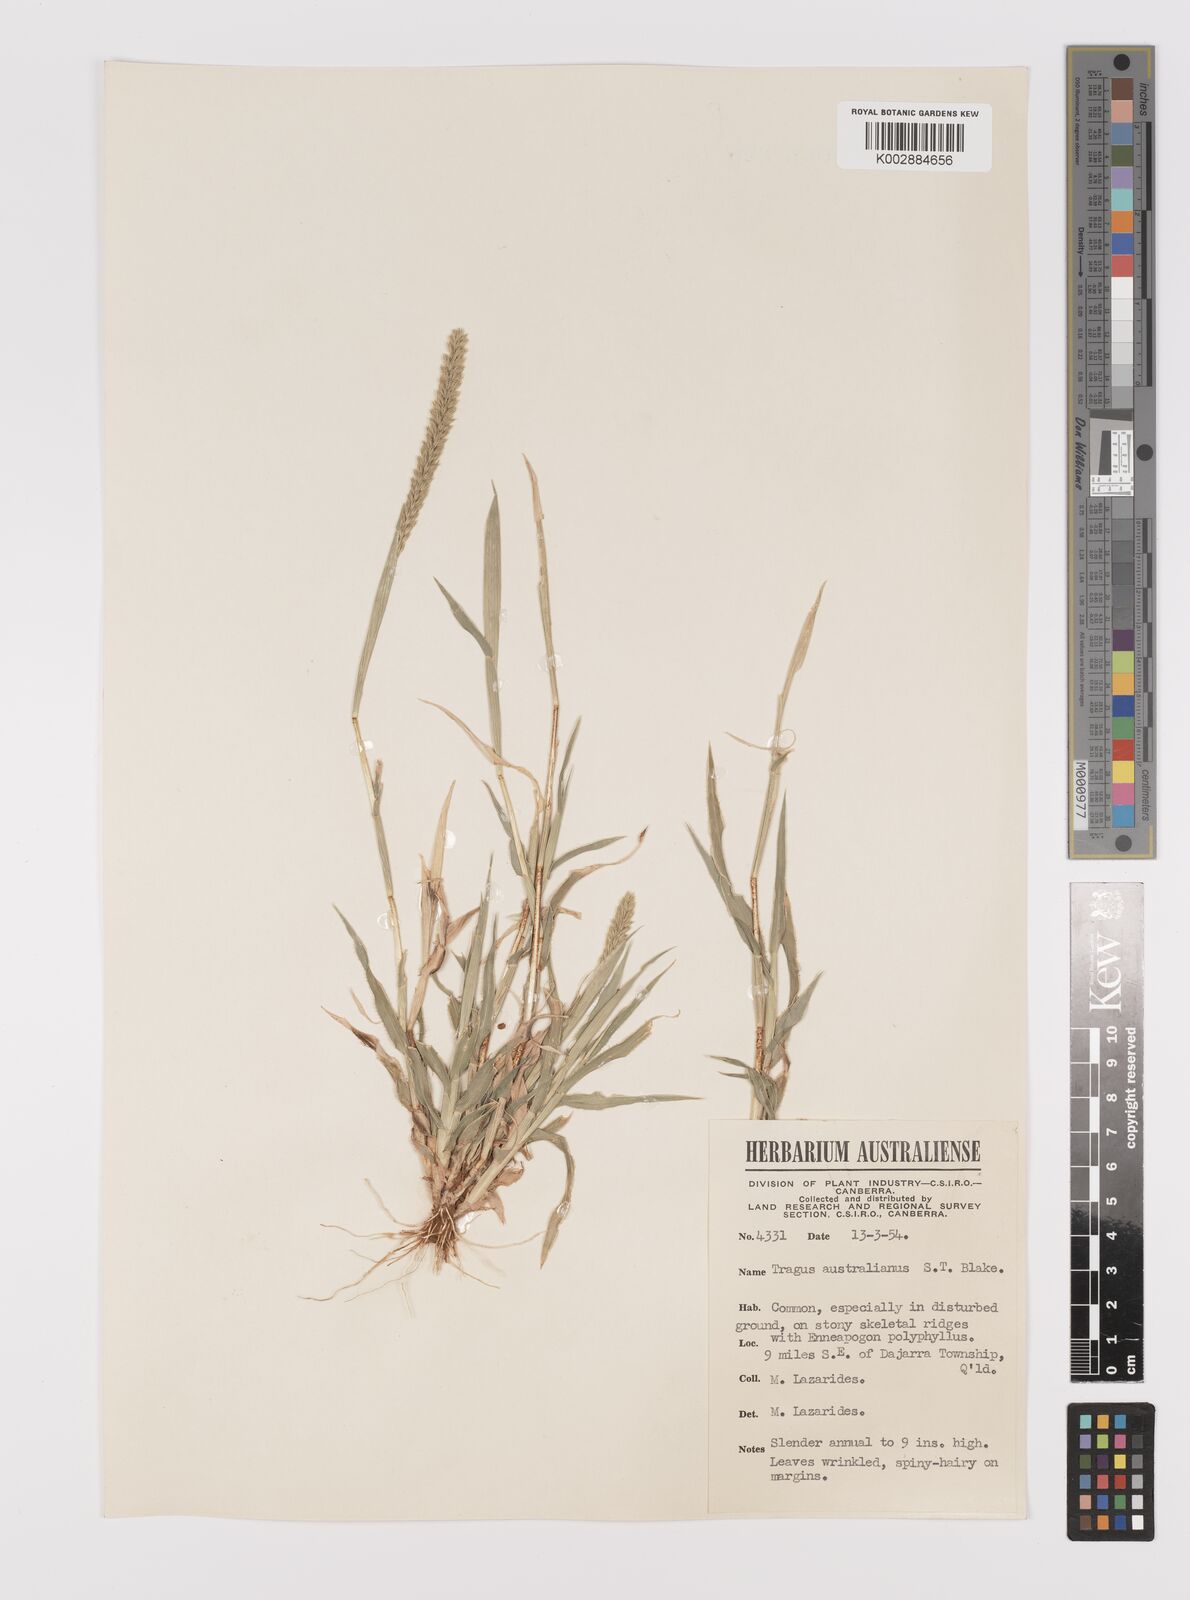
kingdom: Plantae
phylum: Tracheophyta
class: Liliopsida
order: Poales
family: Poaceae
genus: Tragus
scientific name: Tragus australianus
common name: Australian bur-grass
